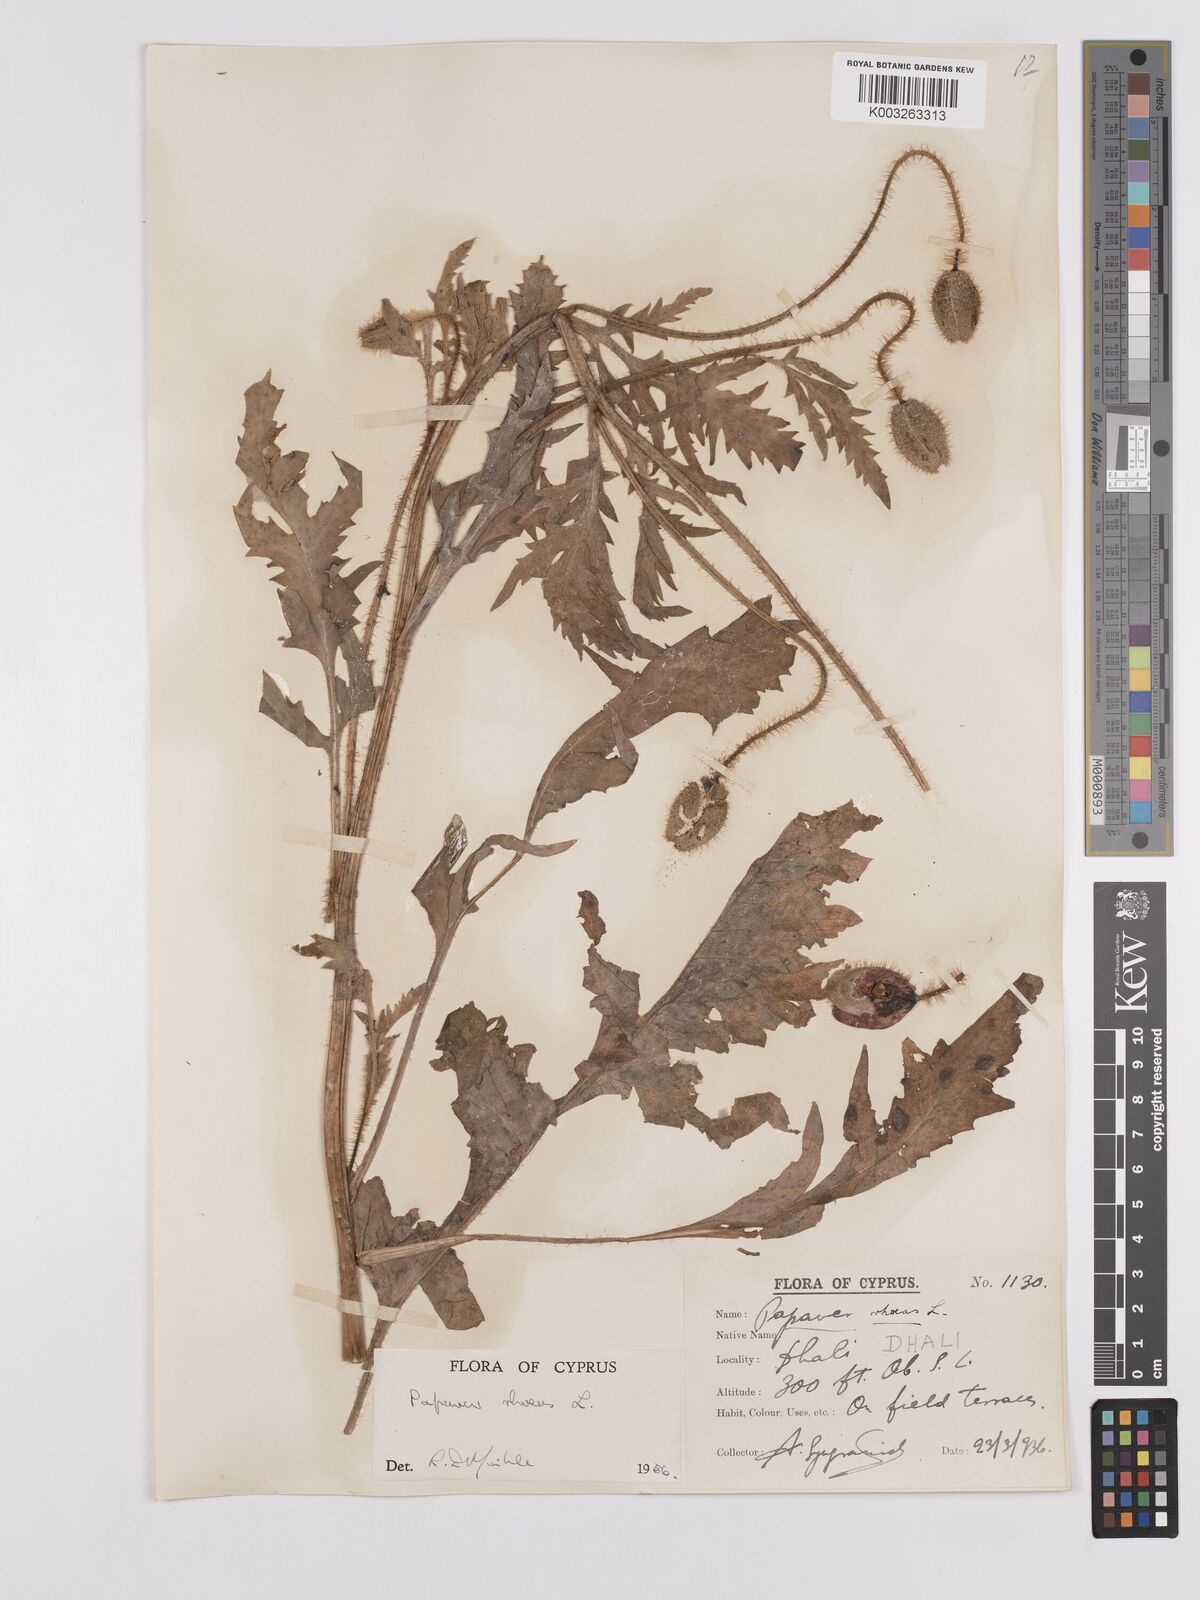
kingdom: Plantae
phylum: Tracheophyta
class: Magnoliopsida
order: Ranunculales
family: Papaveraceae
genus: Papaver
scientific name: Papaver rhoeas
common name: Corn poppy
